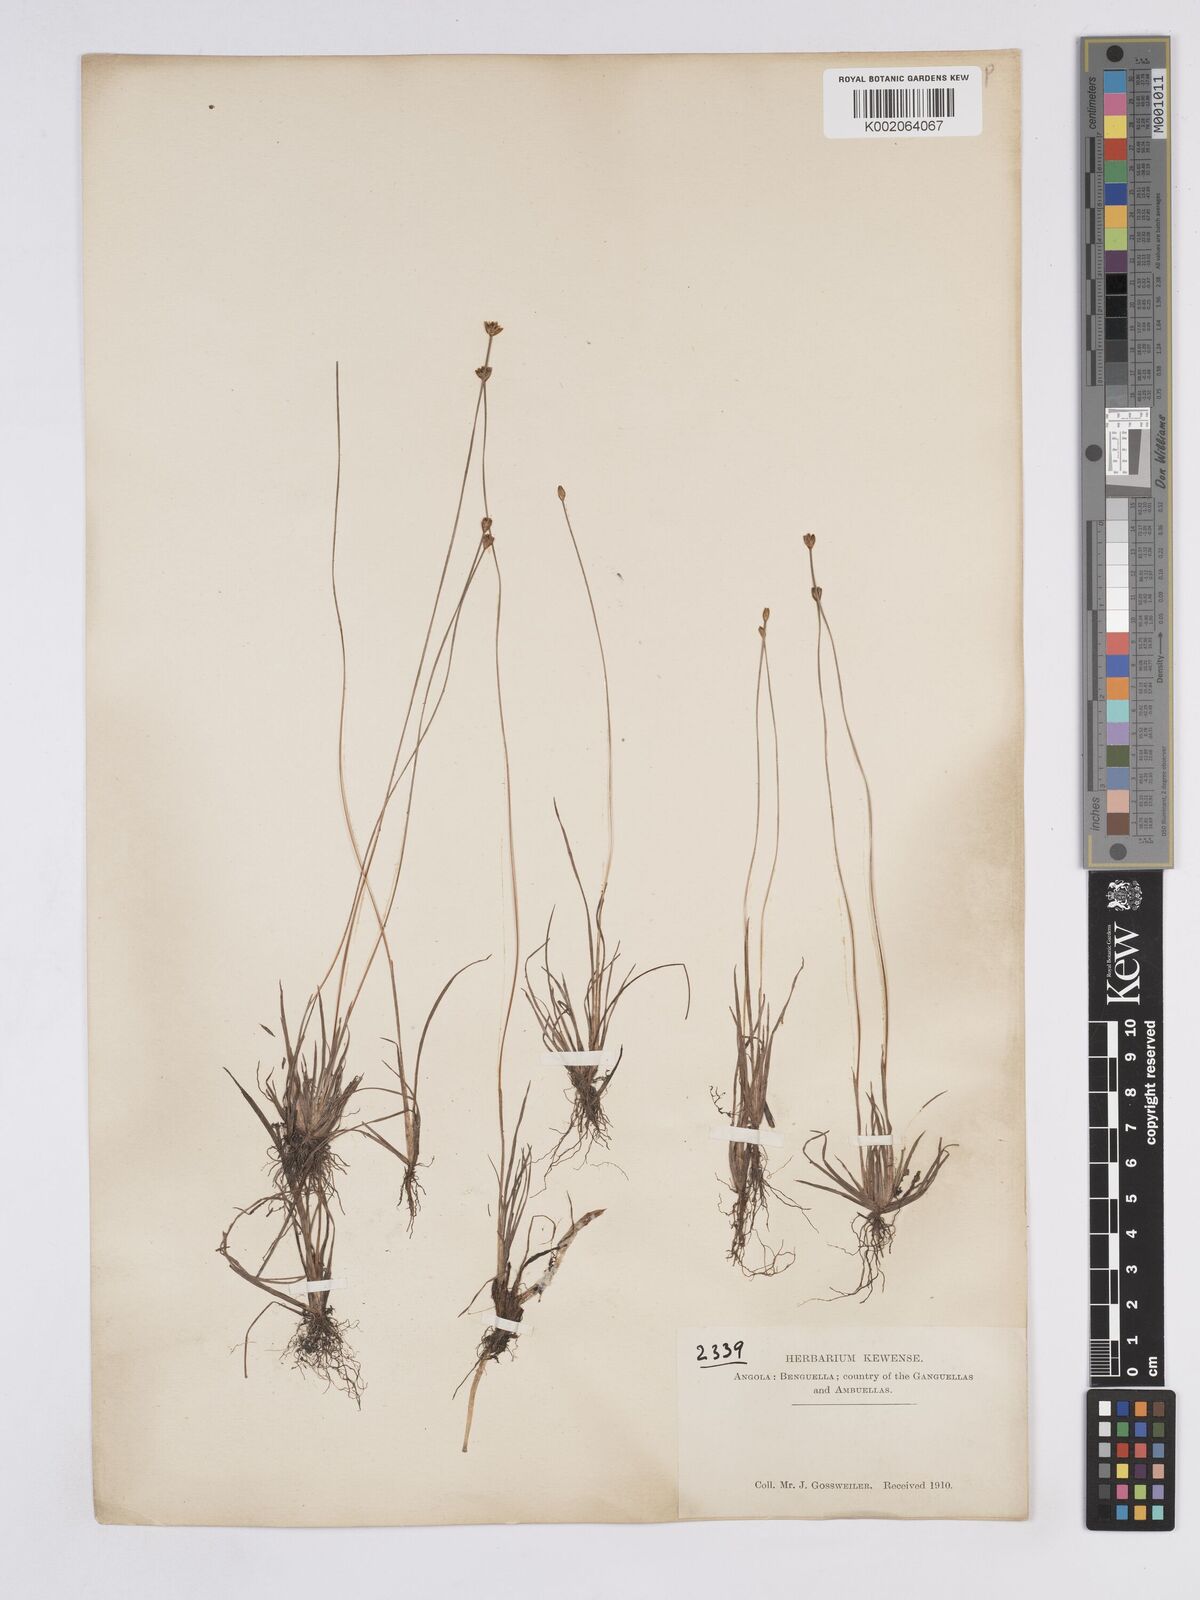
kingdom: Plantae
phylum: Tracheophyta
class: Liliopsida
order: Poales
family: Xyridaceae
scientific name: Xyridaceae
